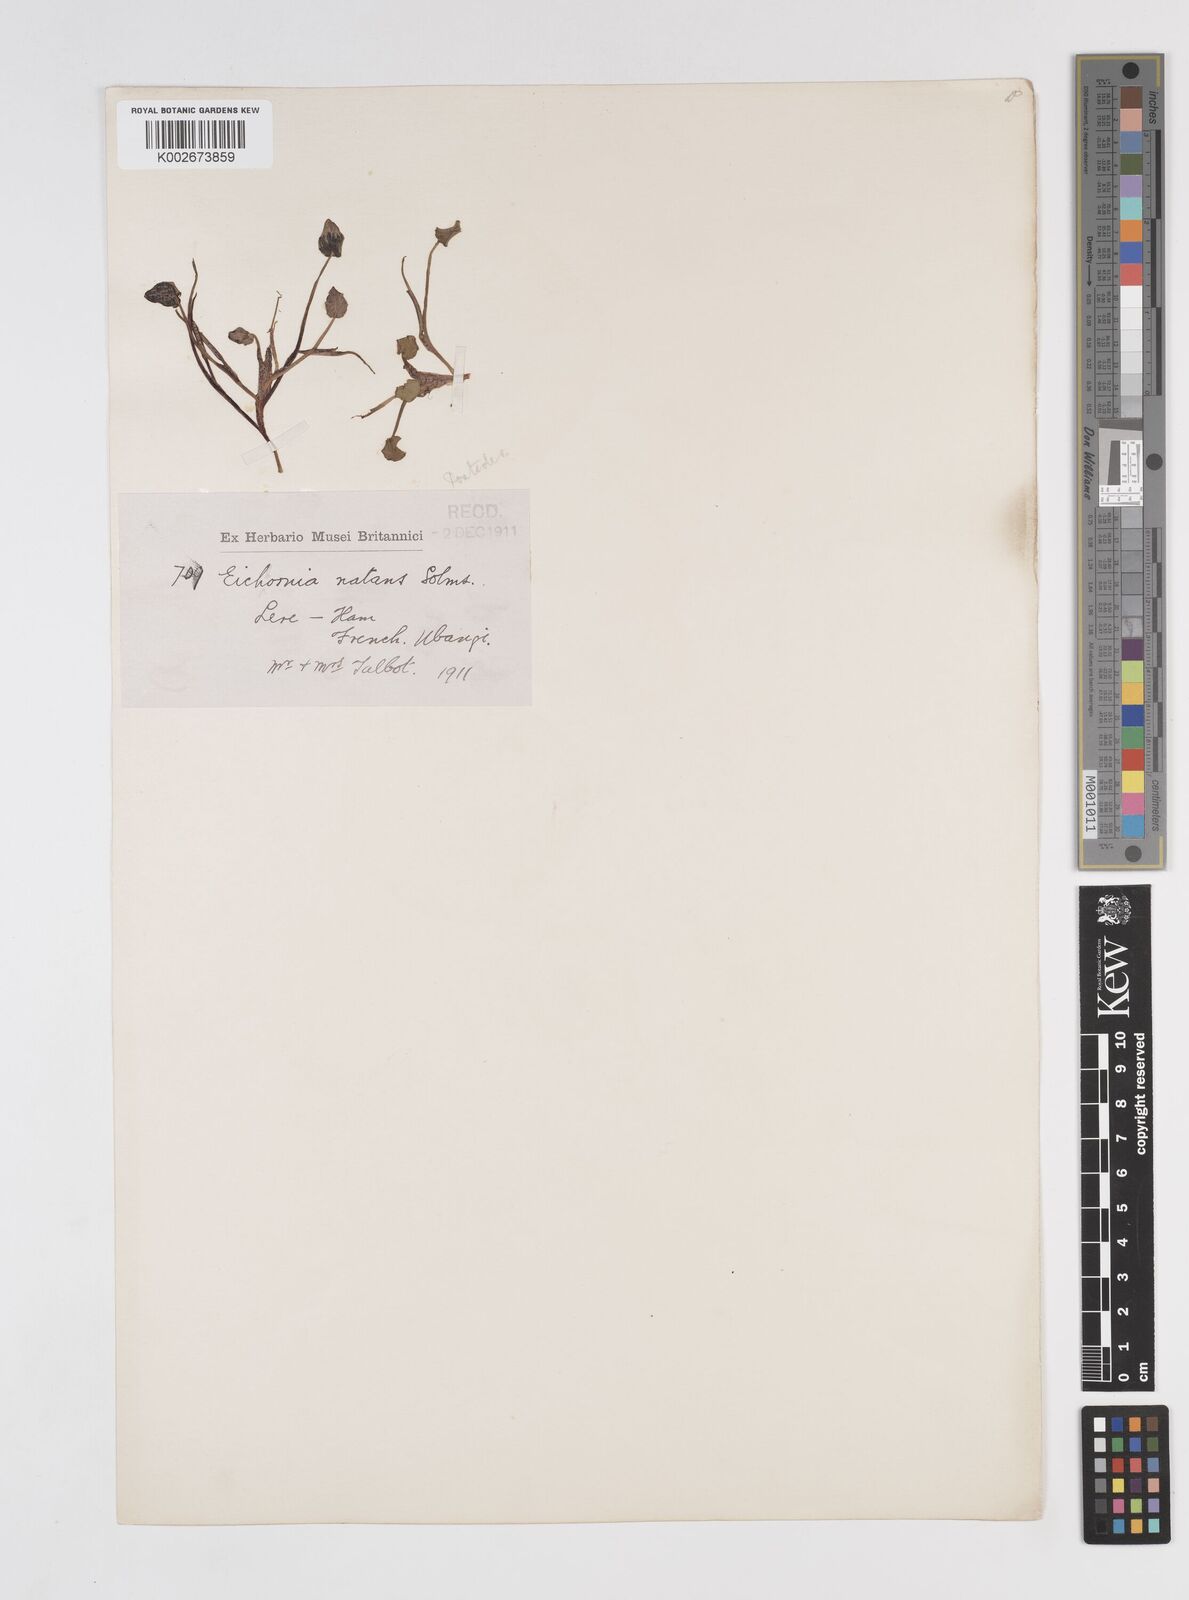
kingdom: Plantae
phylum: Tracheophyta
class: Liliopsida
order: Commelinales
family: Pontederiaceae
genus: Pontederia
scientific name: Pontederia natans
